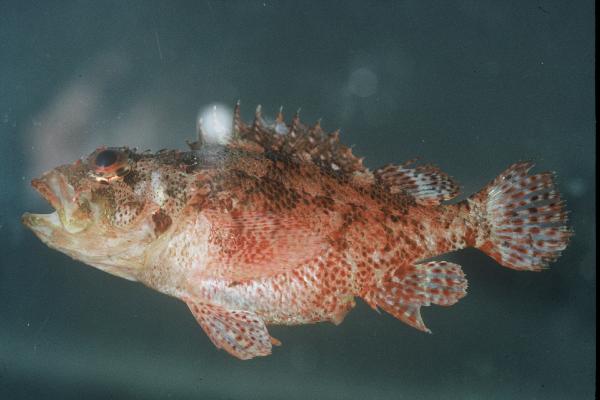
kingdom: Animalia
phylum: Chordata
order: Scorpaeniformes
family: Scorpaenidae
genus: Scorpaenodes
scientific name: Scorpaenodes evides
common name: Cheekspot scorpionfish
